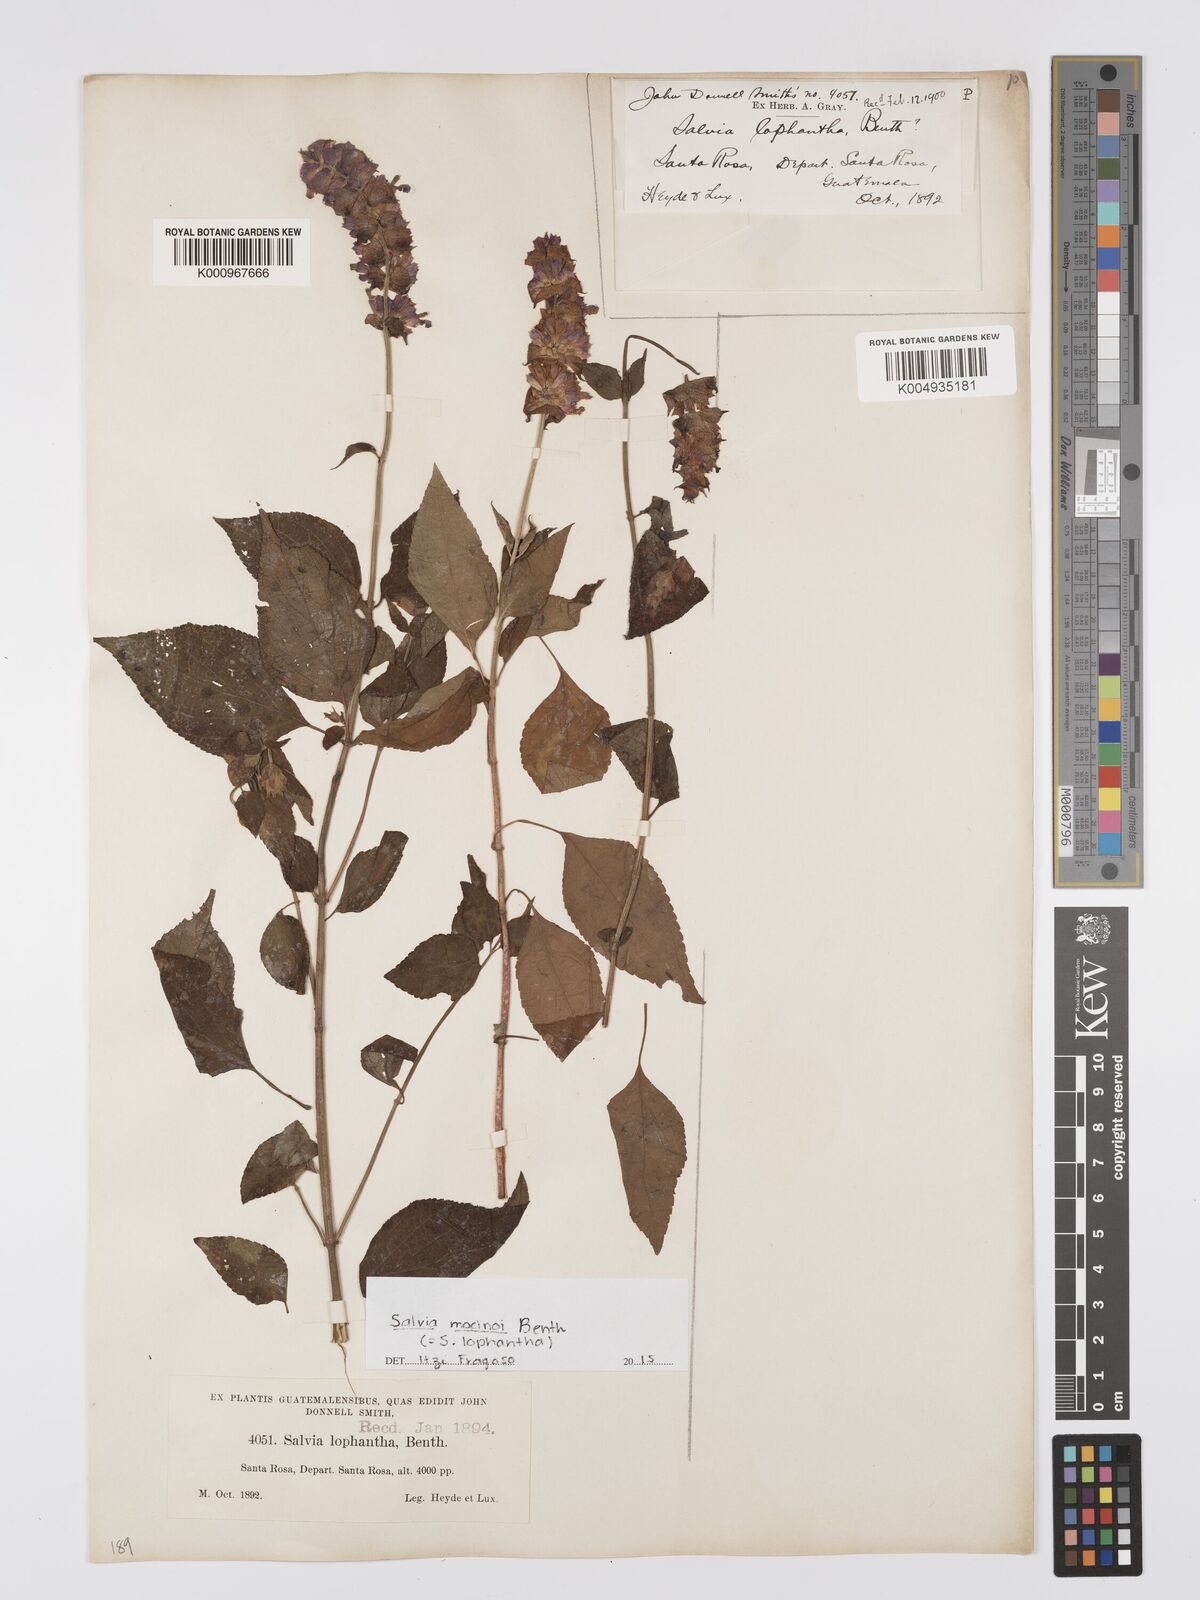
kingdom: Plantae
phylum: Tracheophyta
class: Magnoliopsida
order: Lamiales
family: Lamiaceae
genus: Salvia
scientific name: Salvia mocinoi
